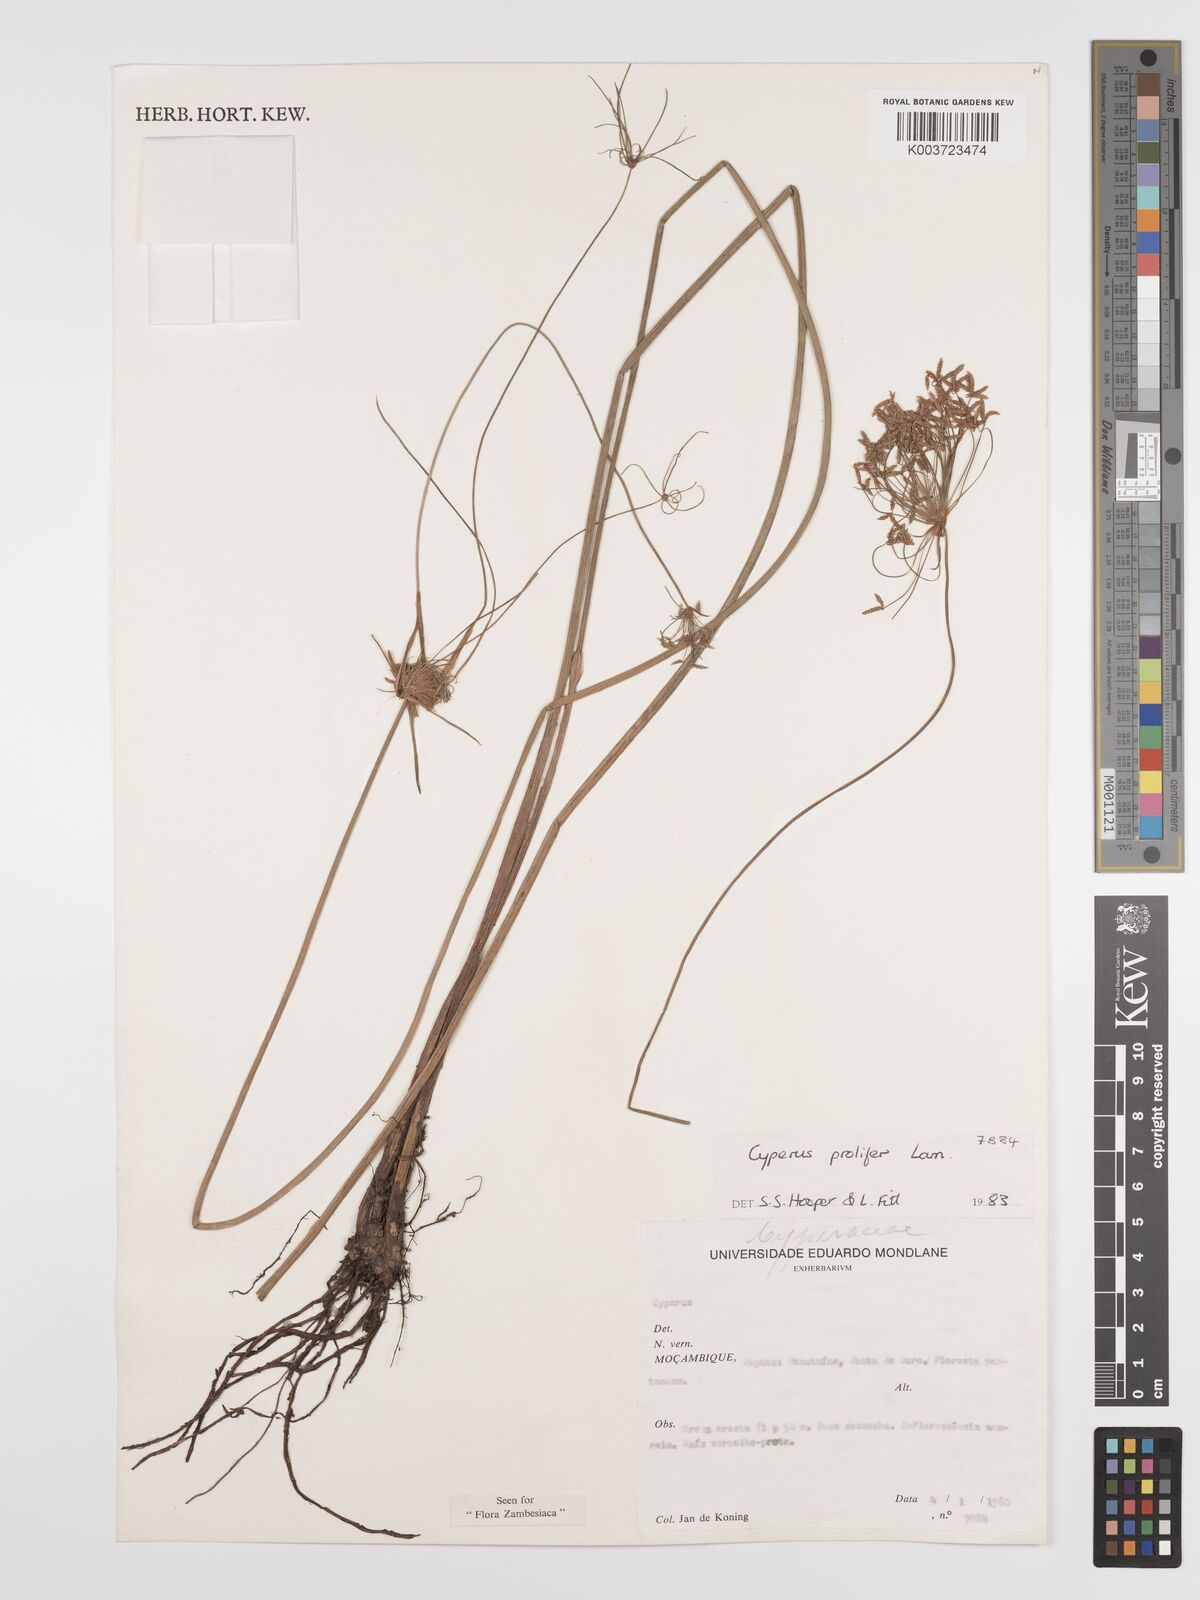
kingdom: Plantae
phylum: Tracheophyta
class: Liliopsida
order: Poales
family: Cyperaceae
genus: Cyperus
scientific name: Cyperus prolifer
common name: Miniature flatsedge
